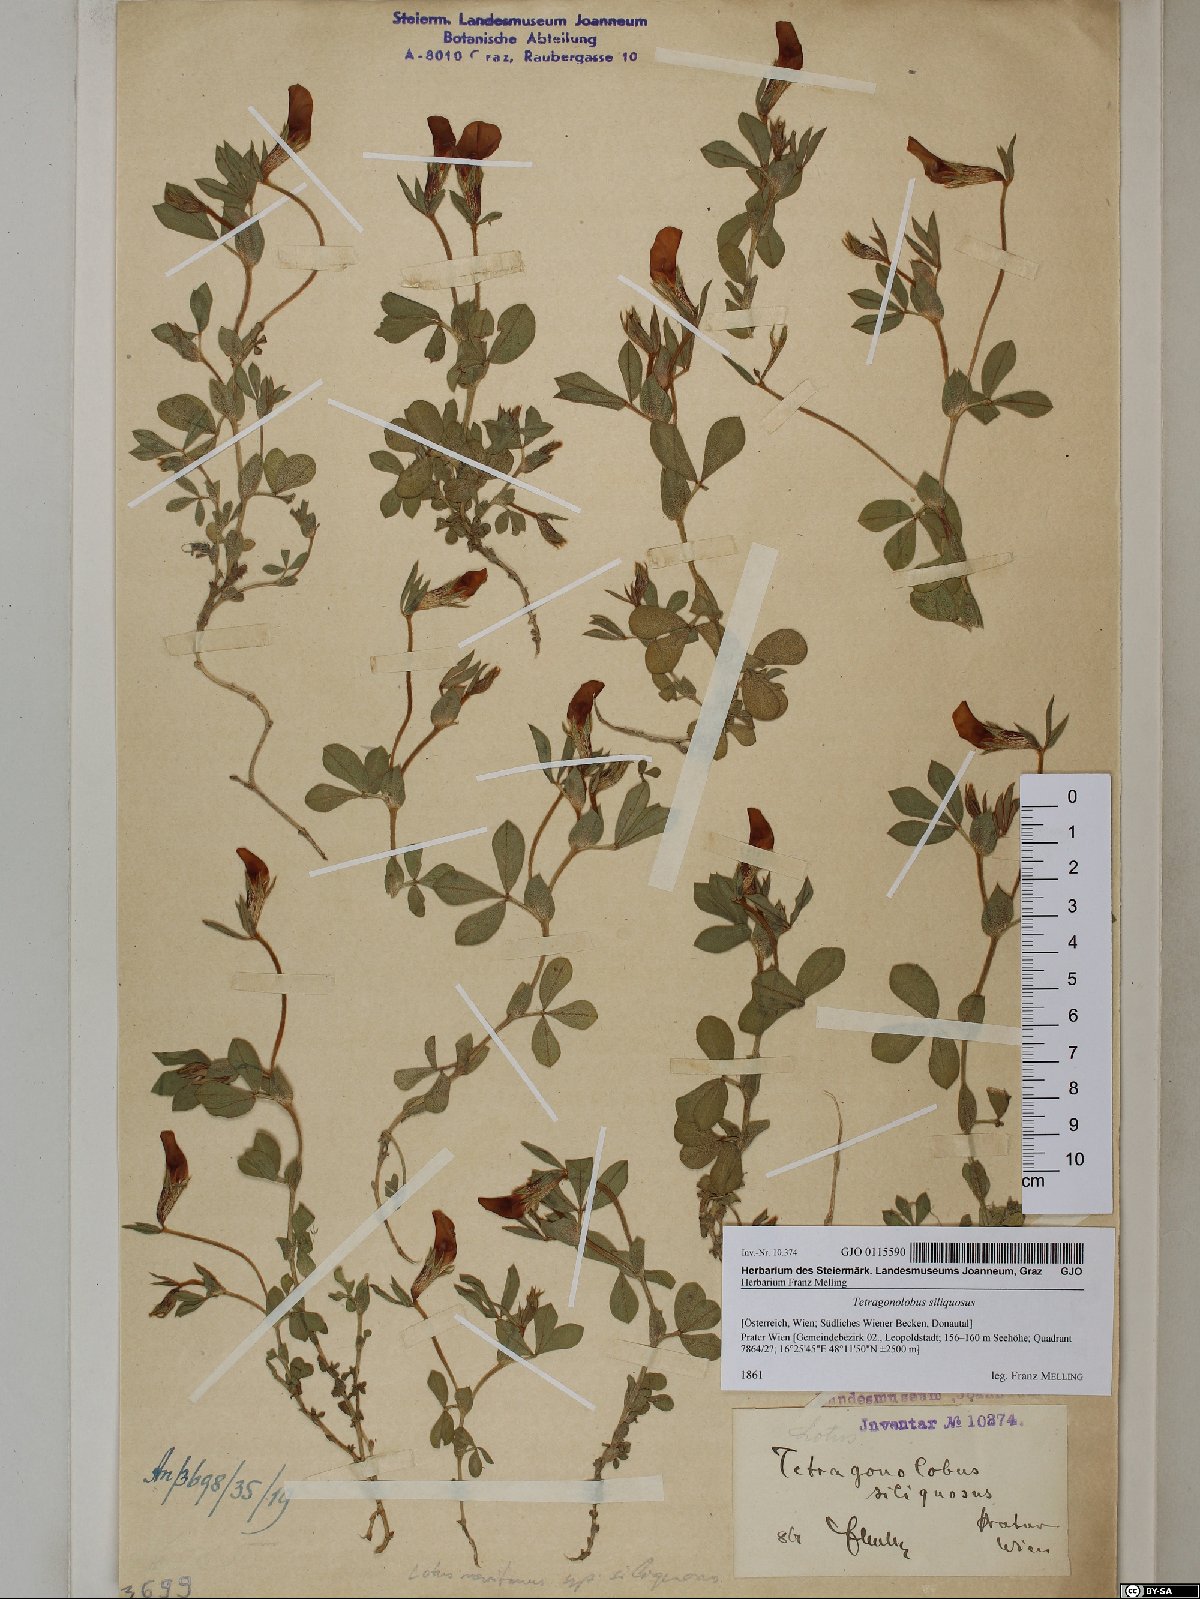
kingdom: Plantae
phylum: Tracheophyta
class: Magnoliopsida
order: Fabales
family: Fabaceae
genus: Lathyrus
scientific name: Lathyrus inconspicuus
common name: Inconspicuous pea
